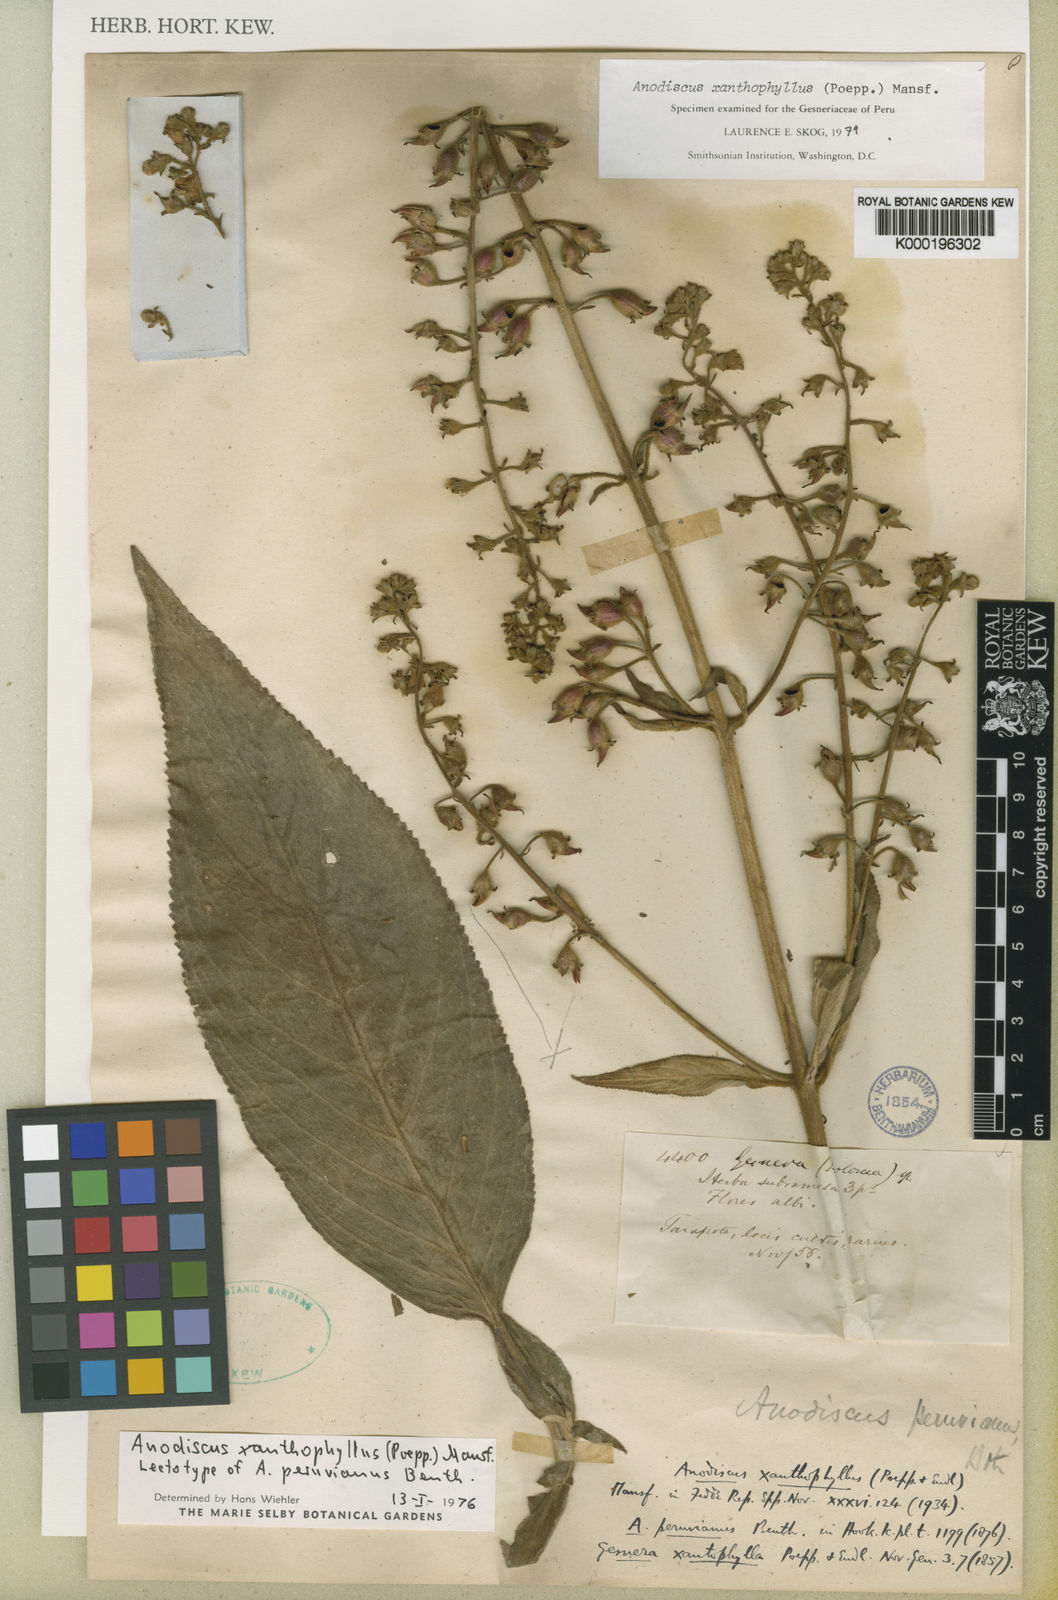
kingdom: Plantae
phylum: Tracheophyta
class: Magnoliopsida
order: Lamiales
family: Gesneriaceae
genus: Gloxinia
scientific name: Gloxinia xanthophylla
